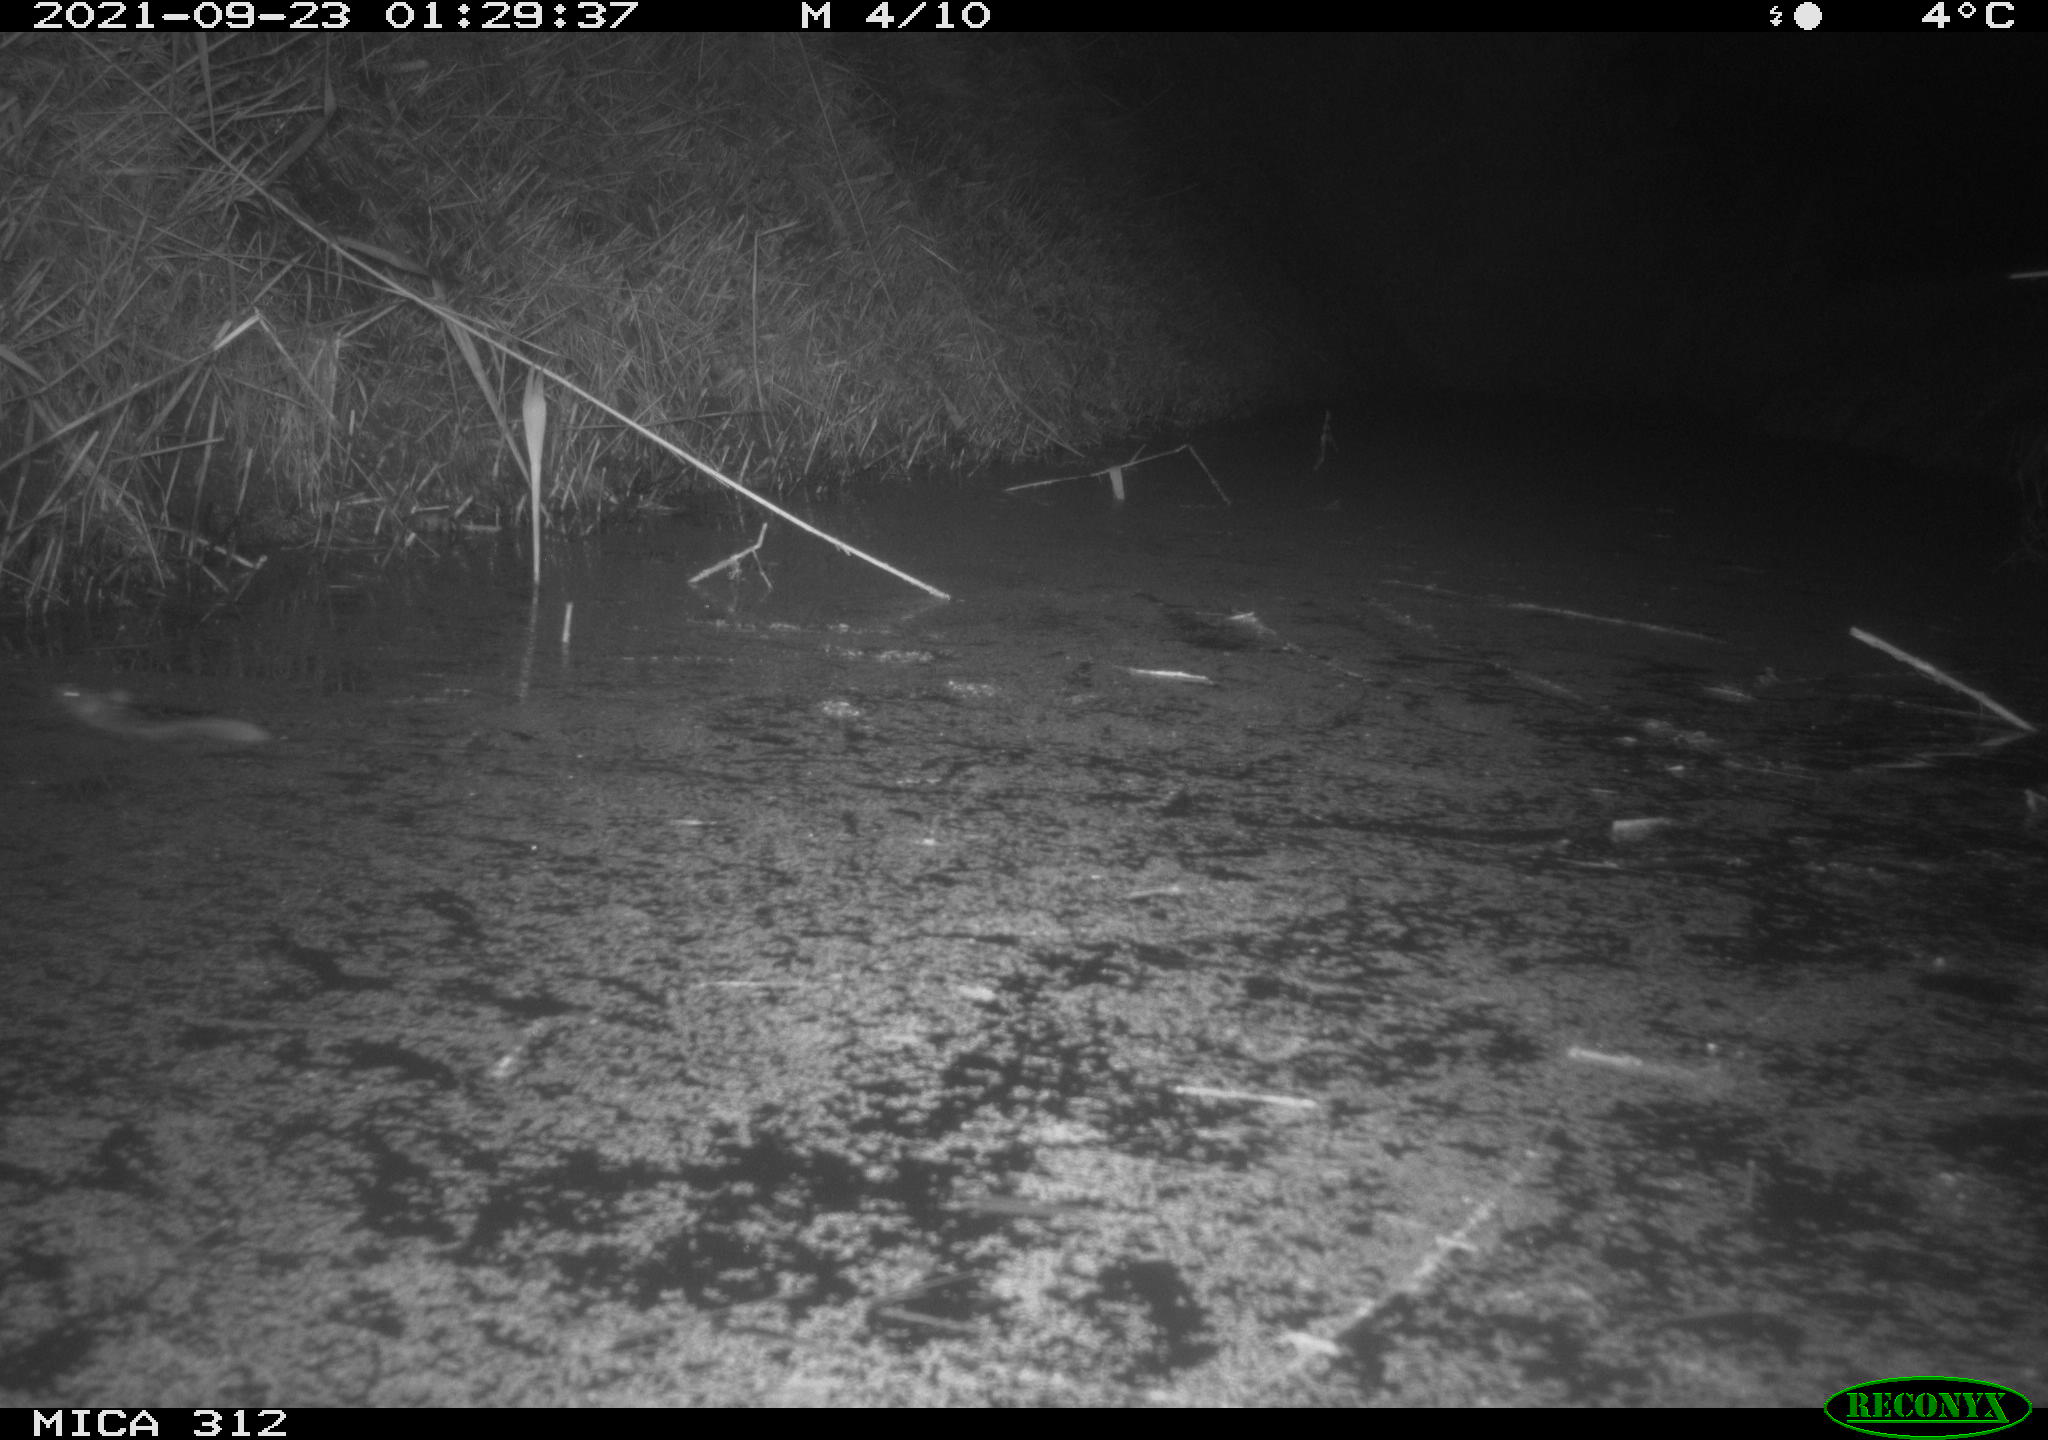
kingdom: Animalia
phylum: Chordata
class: Mammalia
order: Rodentia
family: Muridae
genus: Rattus
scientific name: Rattus norvegicus
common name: Brown rat
